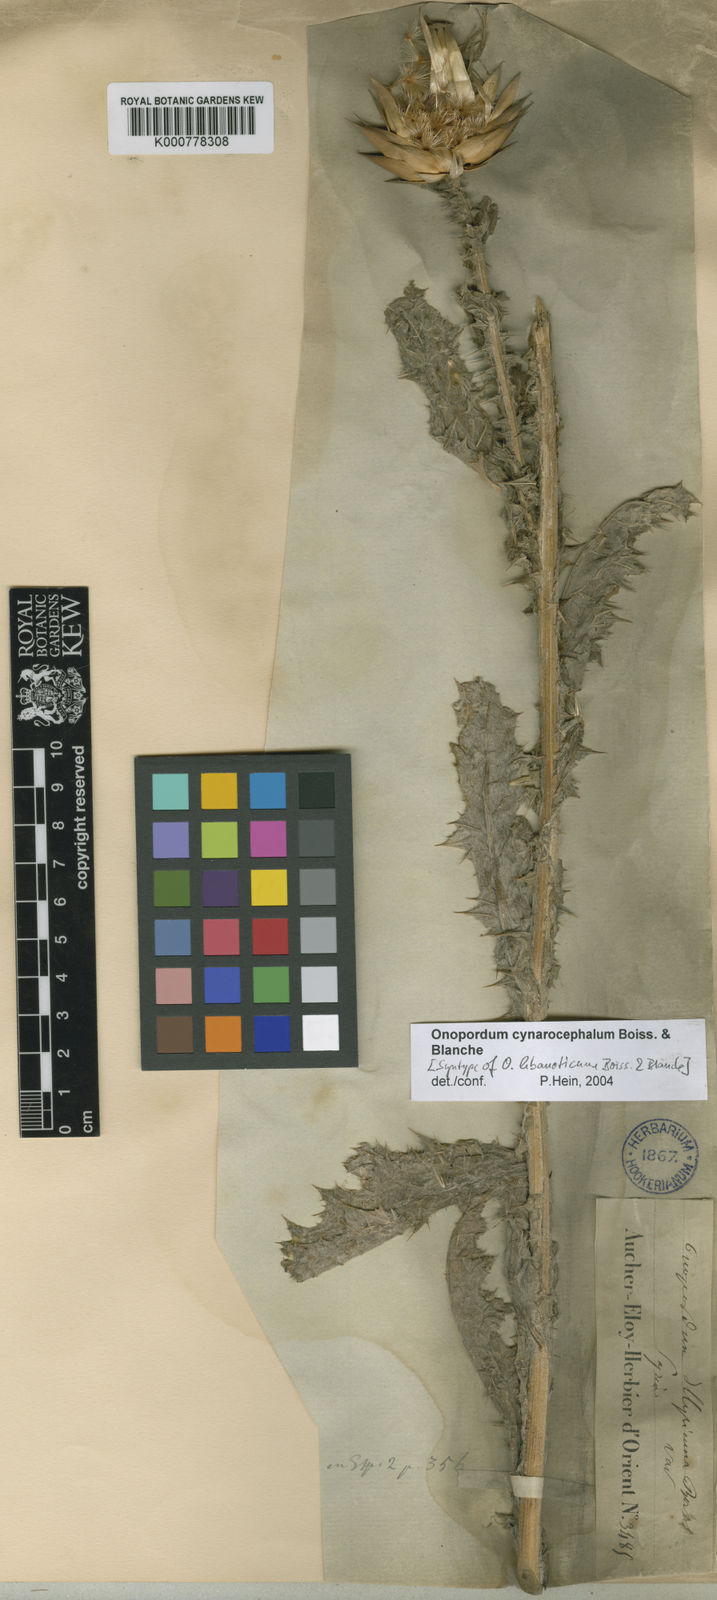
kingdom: Plantae
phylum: Tracheophyta
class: Magnoliopsida
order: Asterales
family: Asteraceae
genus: Onopordum
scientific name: Onopordum cynarocephalum
